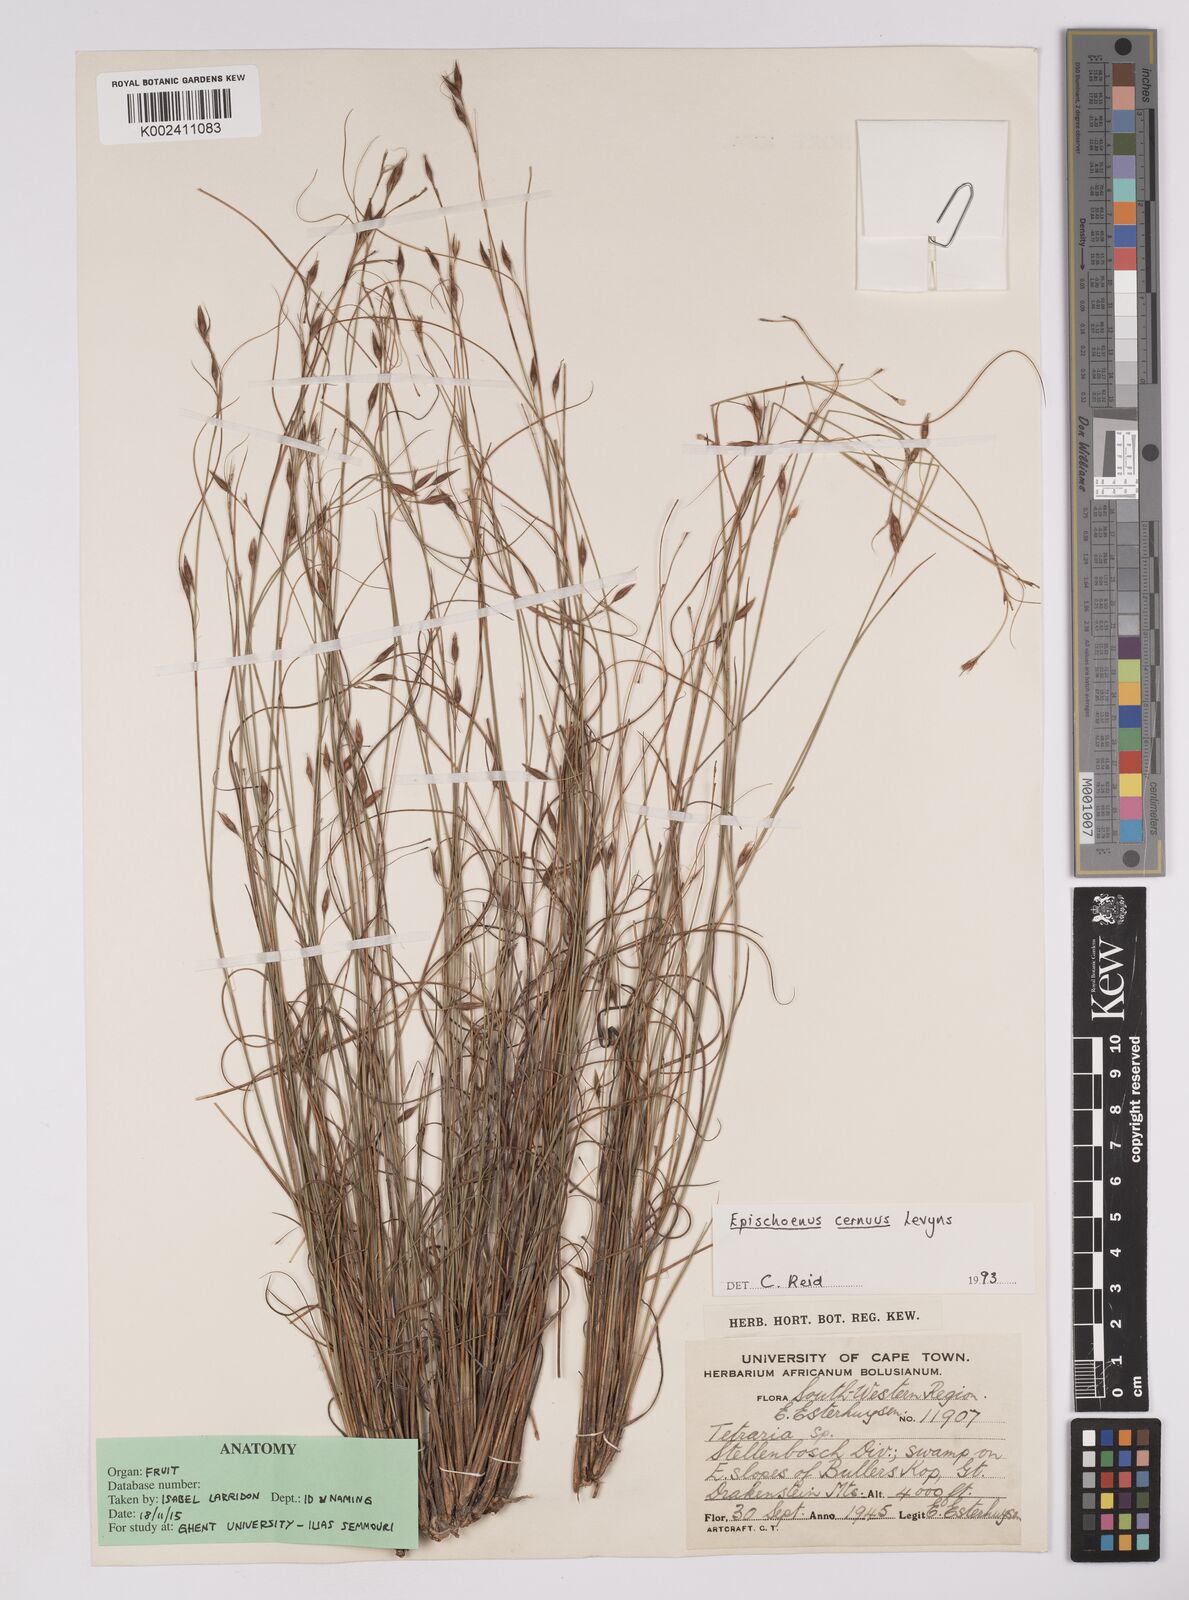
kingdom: Plantae
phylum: Tracheophyta
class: Liliopsida
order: Poales
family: Cyperaceae
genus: Tetraria
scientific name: Tetraria cernua
